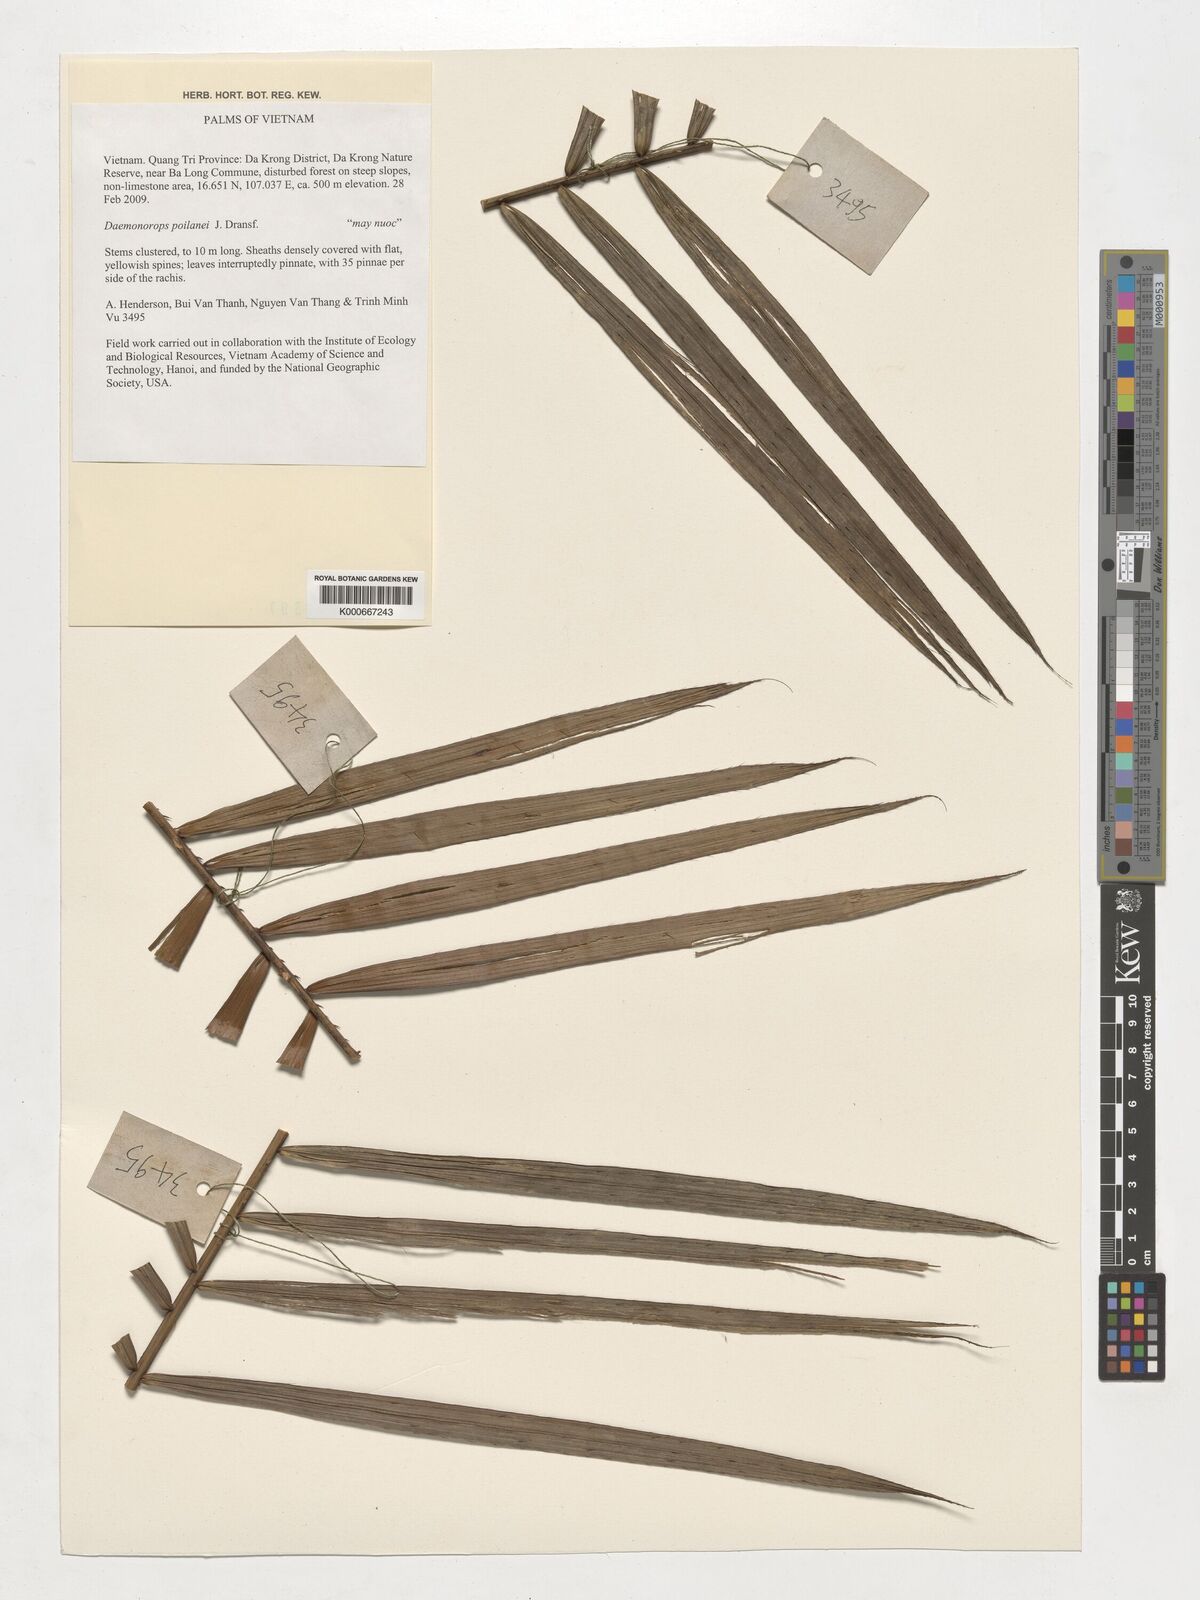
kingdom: Plantae
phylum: Tracheophyta
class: Liliopsida
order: Arecales
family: Arecaceae
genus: Calamus
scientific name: Calamus eugenei
